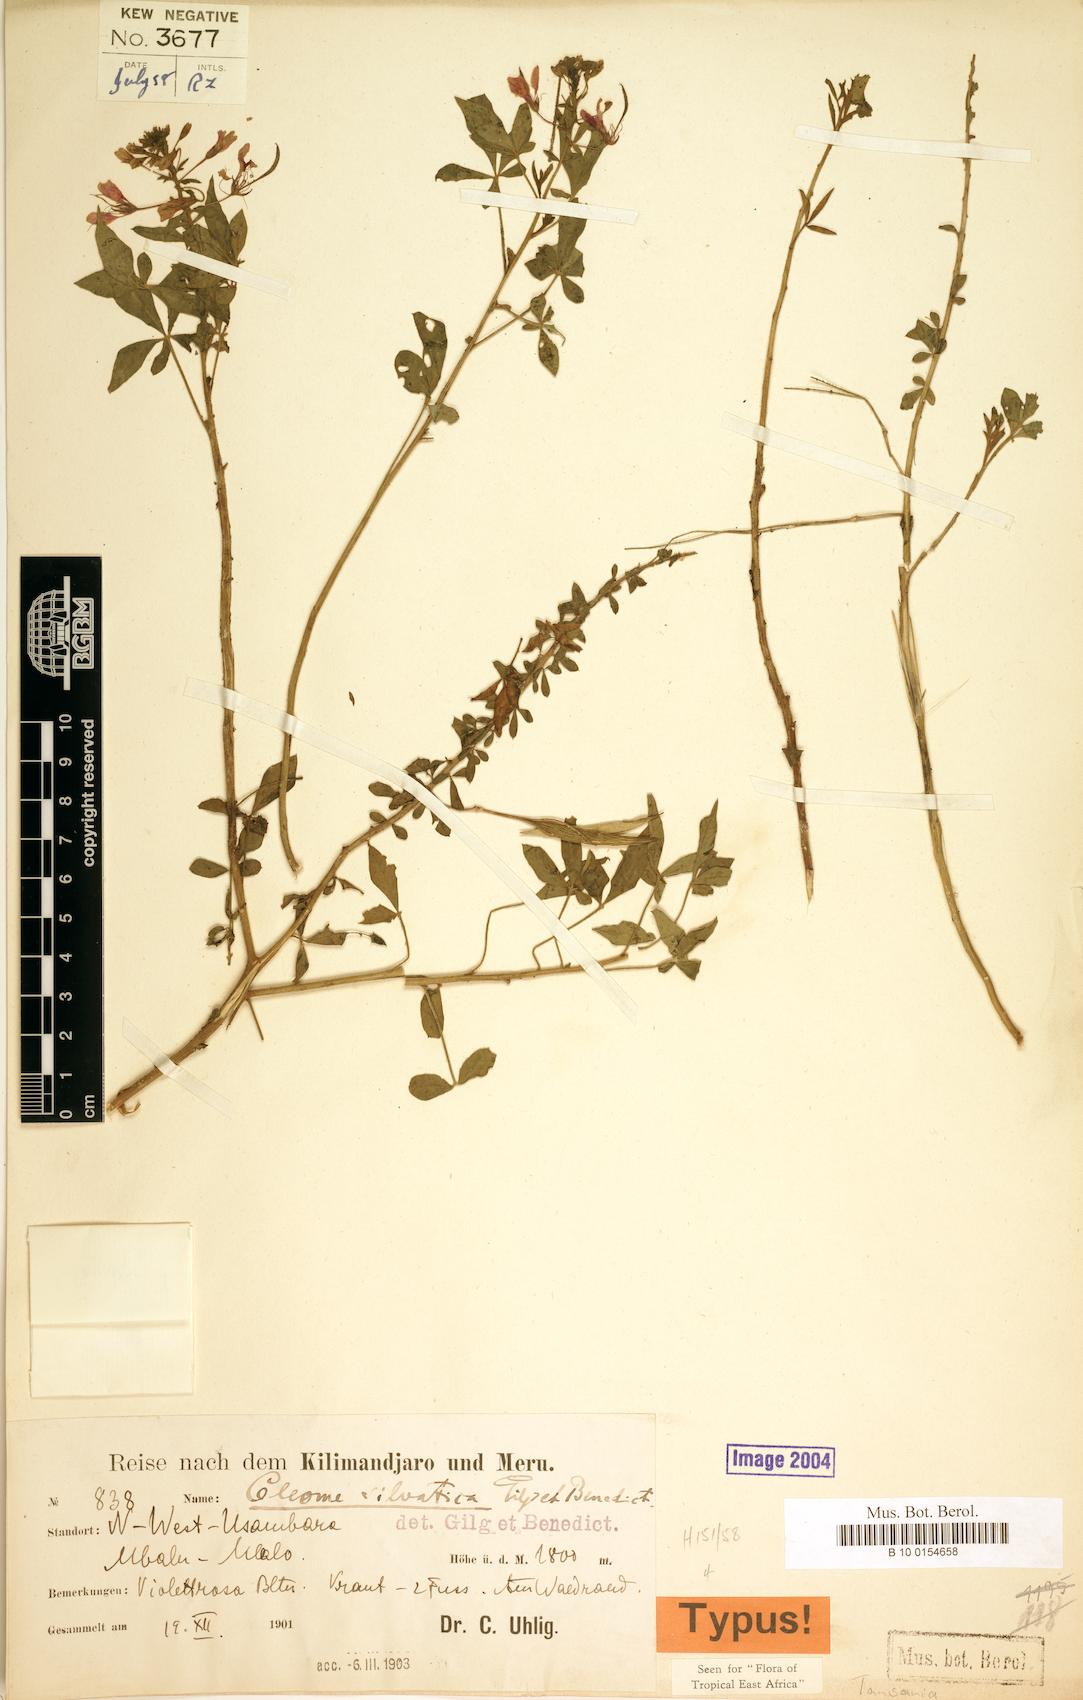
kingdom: Plantae
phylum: Tracheophyta
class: Magnoliopsida
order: Brassicales
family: Cleomaceae
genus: Sieruela
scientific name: Sieruela silvatica
